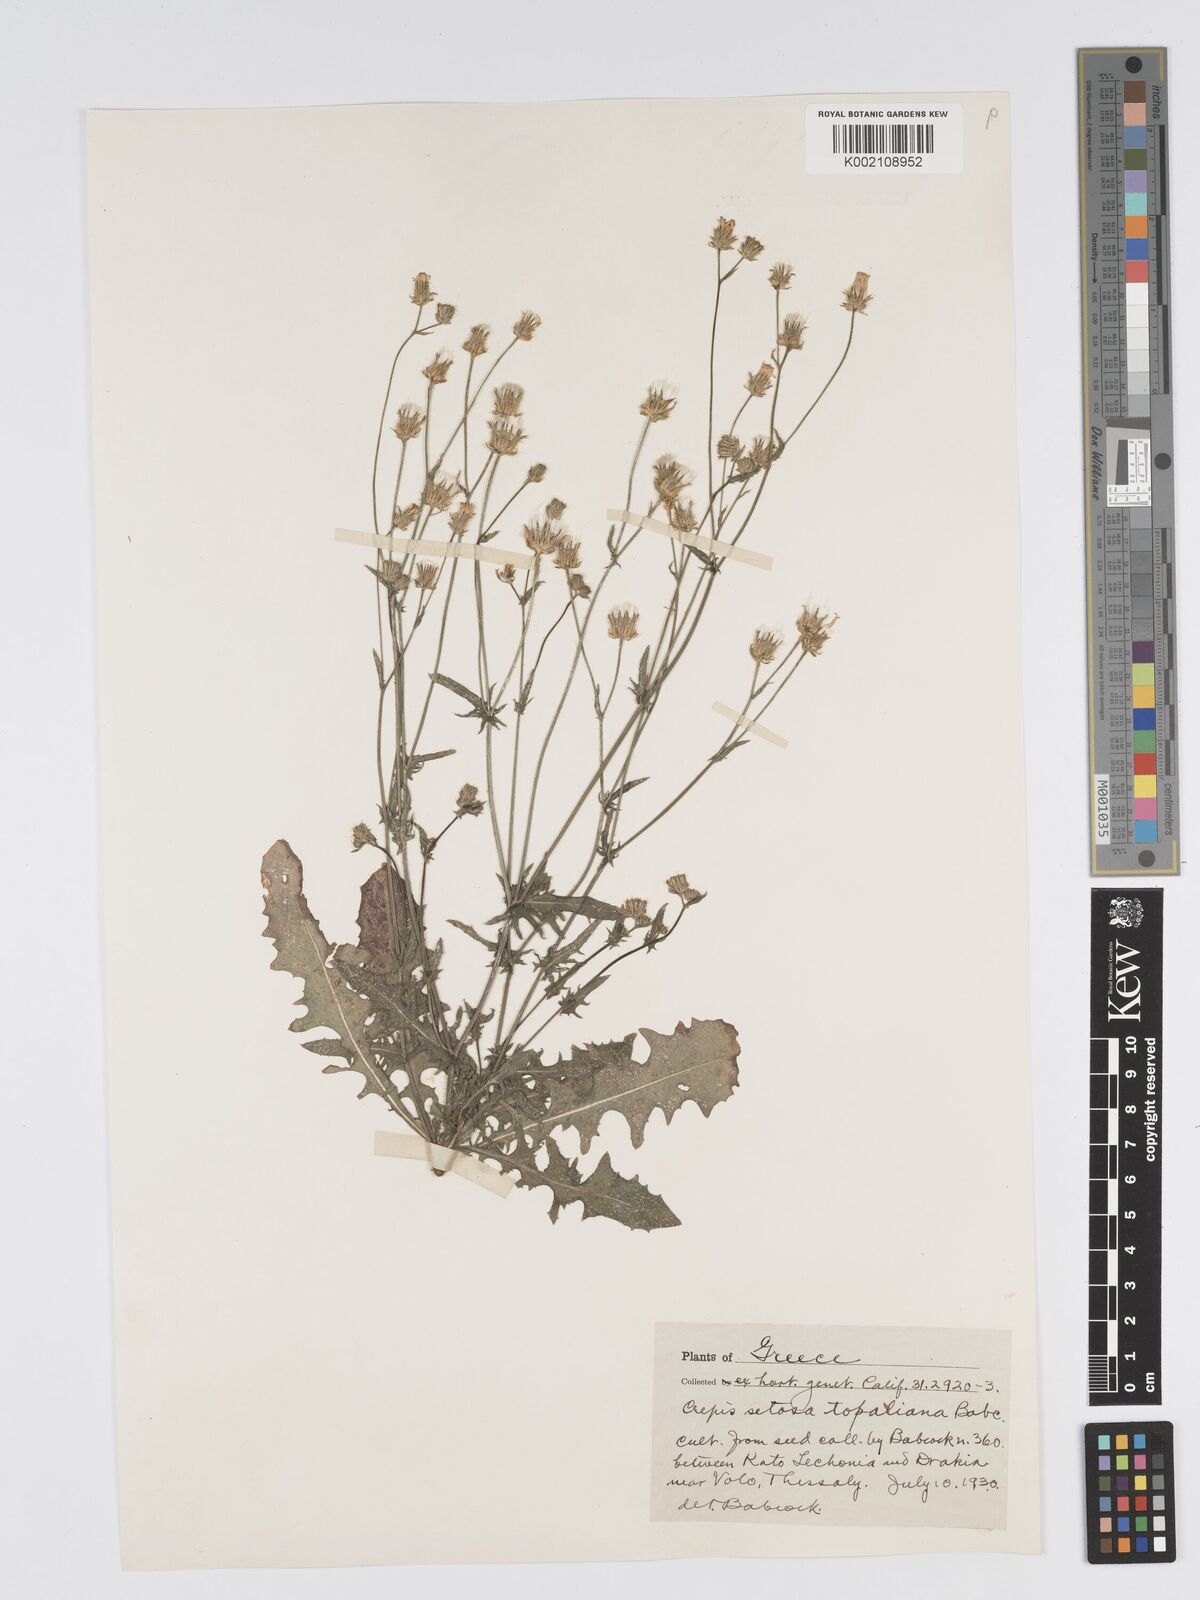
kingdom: Plantae
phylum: Tracheophyta
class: Magnoliopsida
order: Asterales
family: Asteraceae
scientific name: Asteraceae
